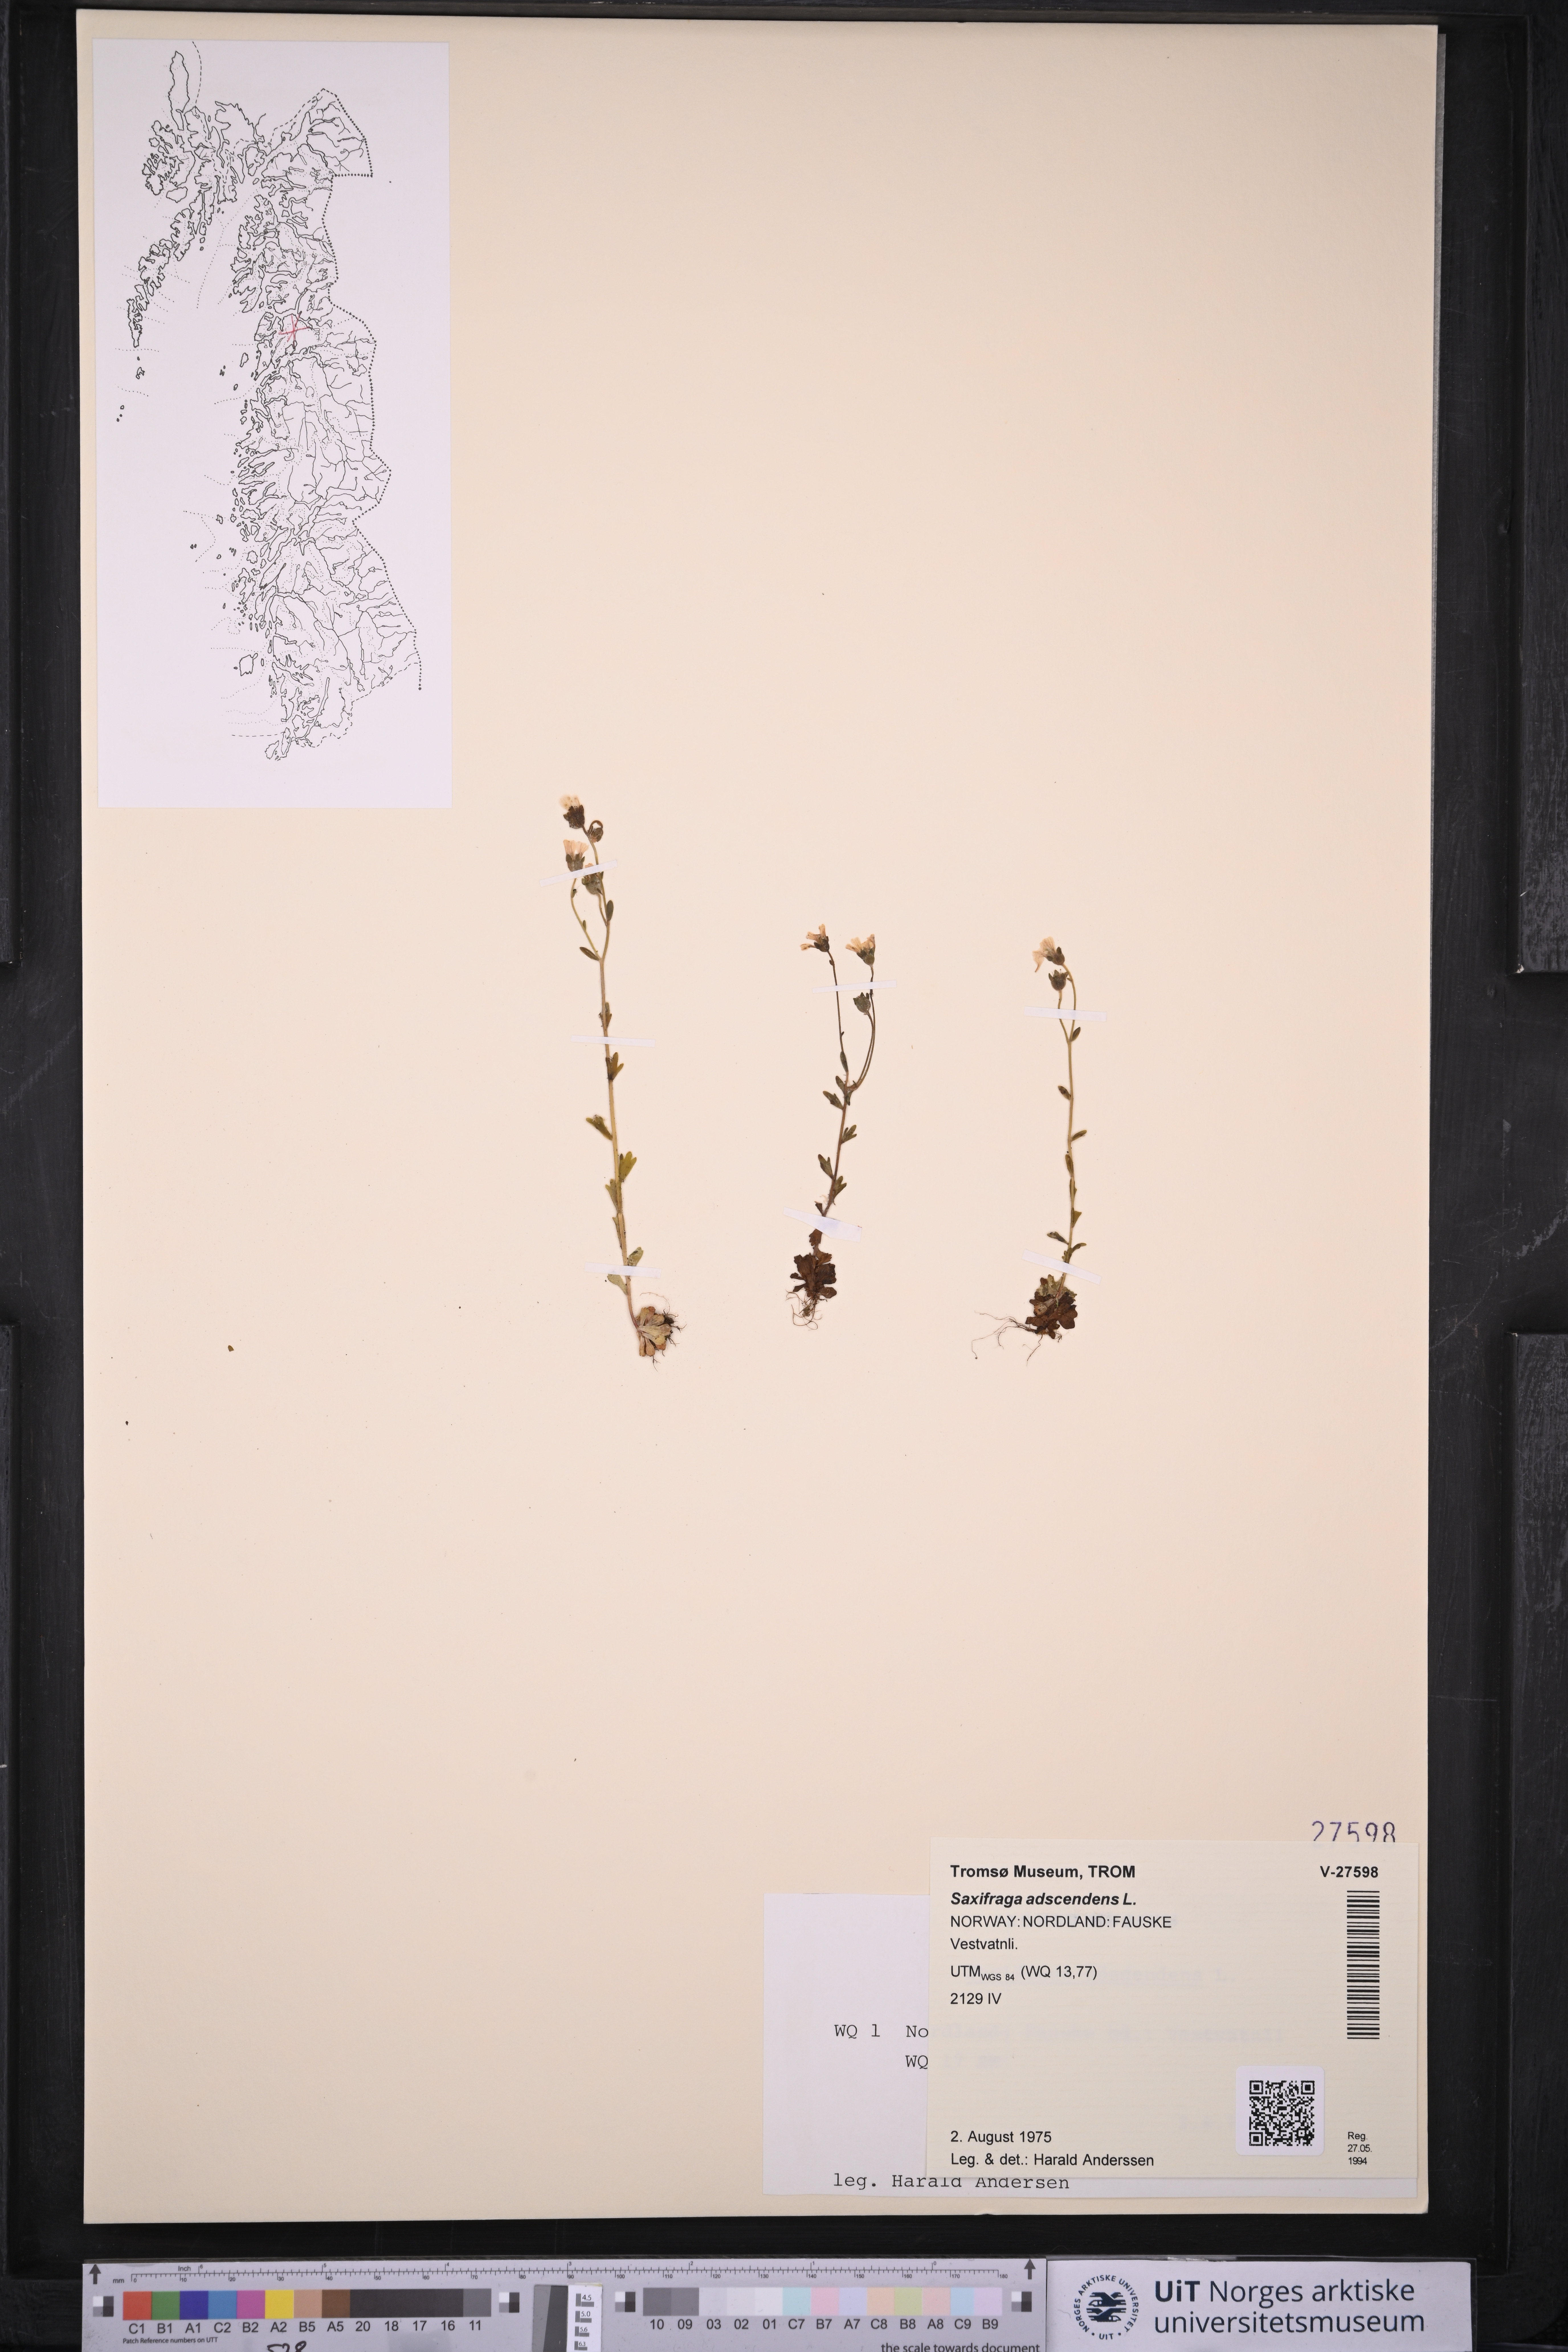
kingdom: Plantae
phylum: Tracheophyta
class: Magnoliopsida
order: Saxifragales
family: Saxifragaceae
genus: Saxifraga
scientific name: Saxifraga adscendens
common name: Ascending saxifrage
